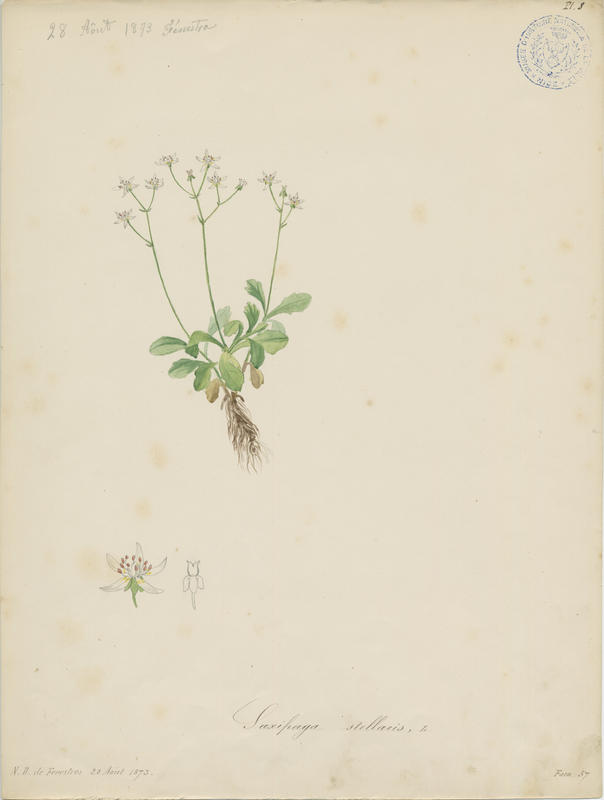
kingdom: Plantae
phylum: Tracheophyta
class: Magnoliopsida
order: Saxifragales
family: Saxifragaceae
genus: Micranthes
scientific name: Micranthes stellaris
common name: Starry saxifrage
